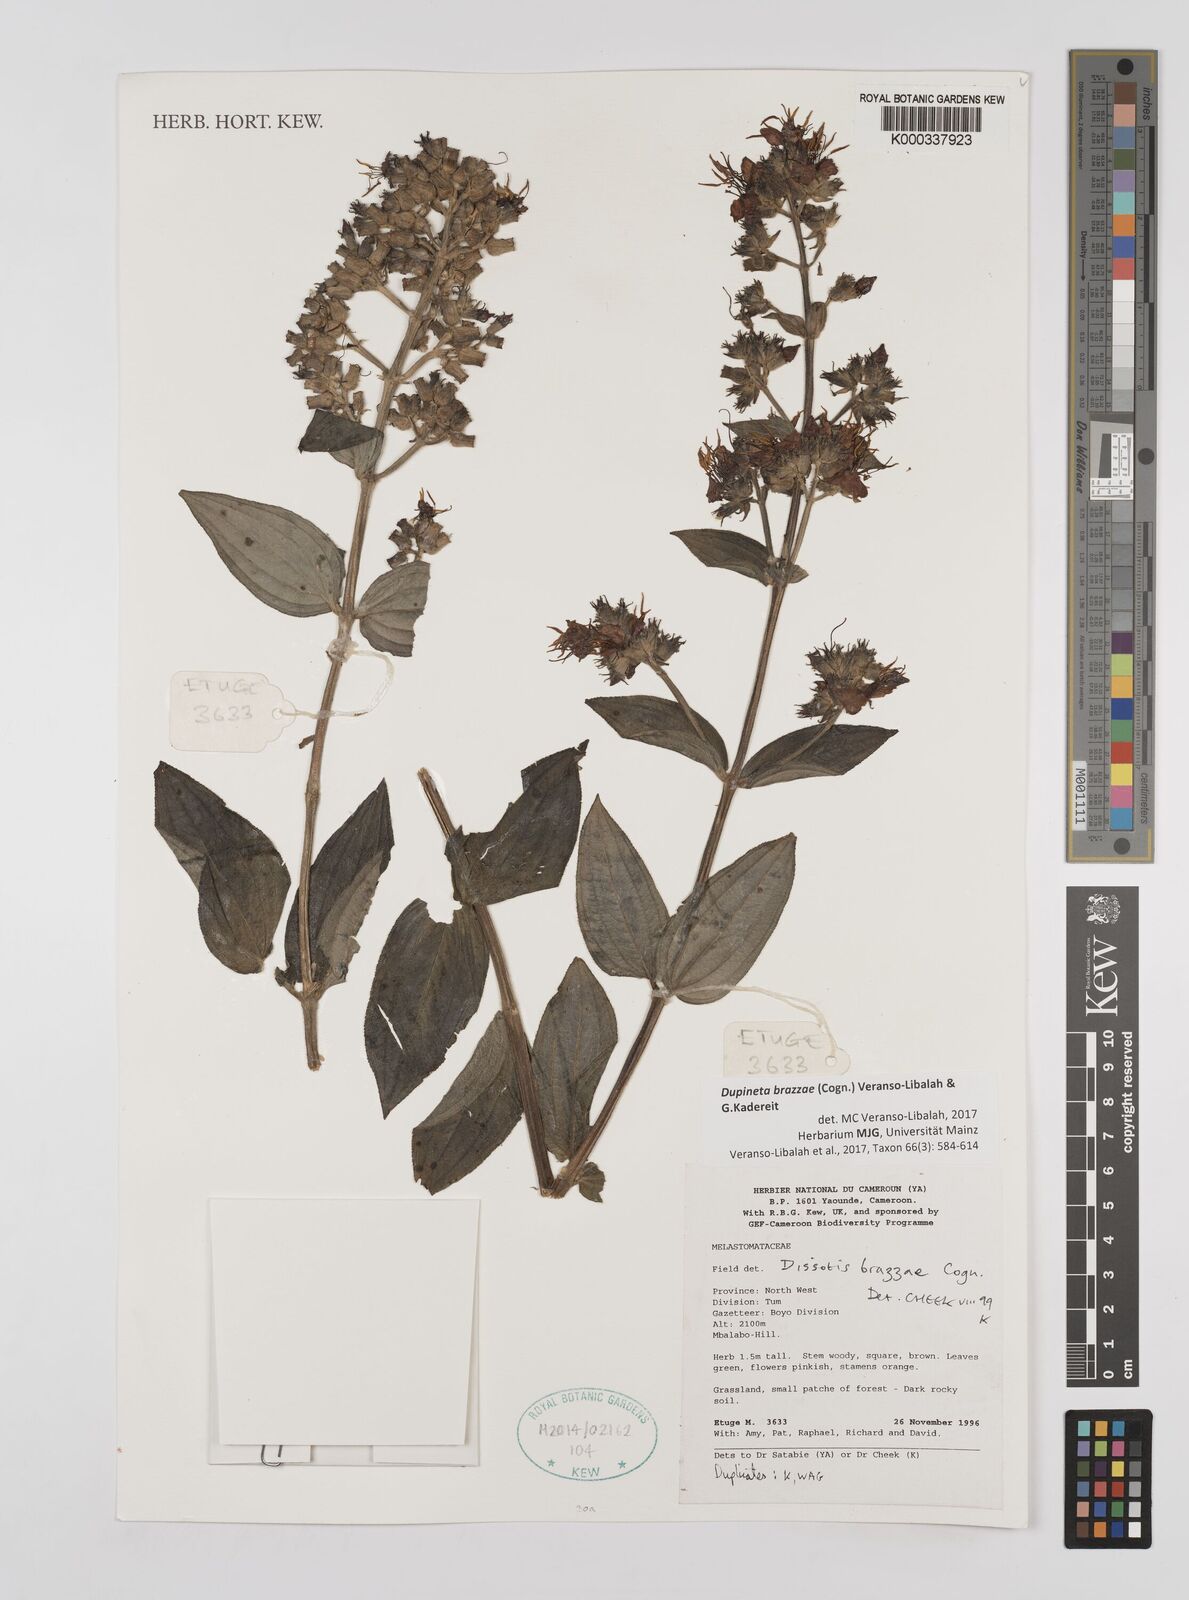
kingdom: Plantae
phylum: Tracheophyta
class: Magnoliopsida
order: Myrtales
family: Melastomataceae
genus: Dupineta
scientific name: Dupineta brazzae
